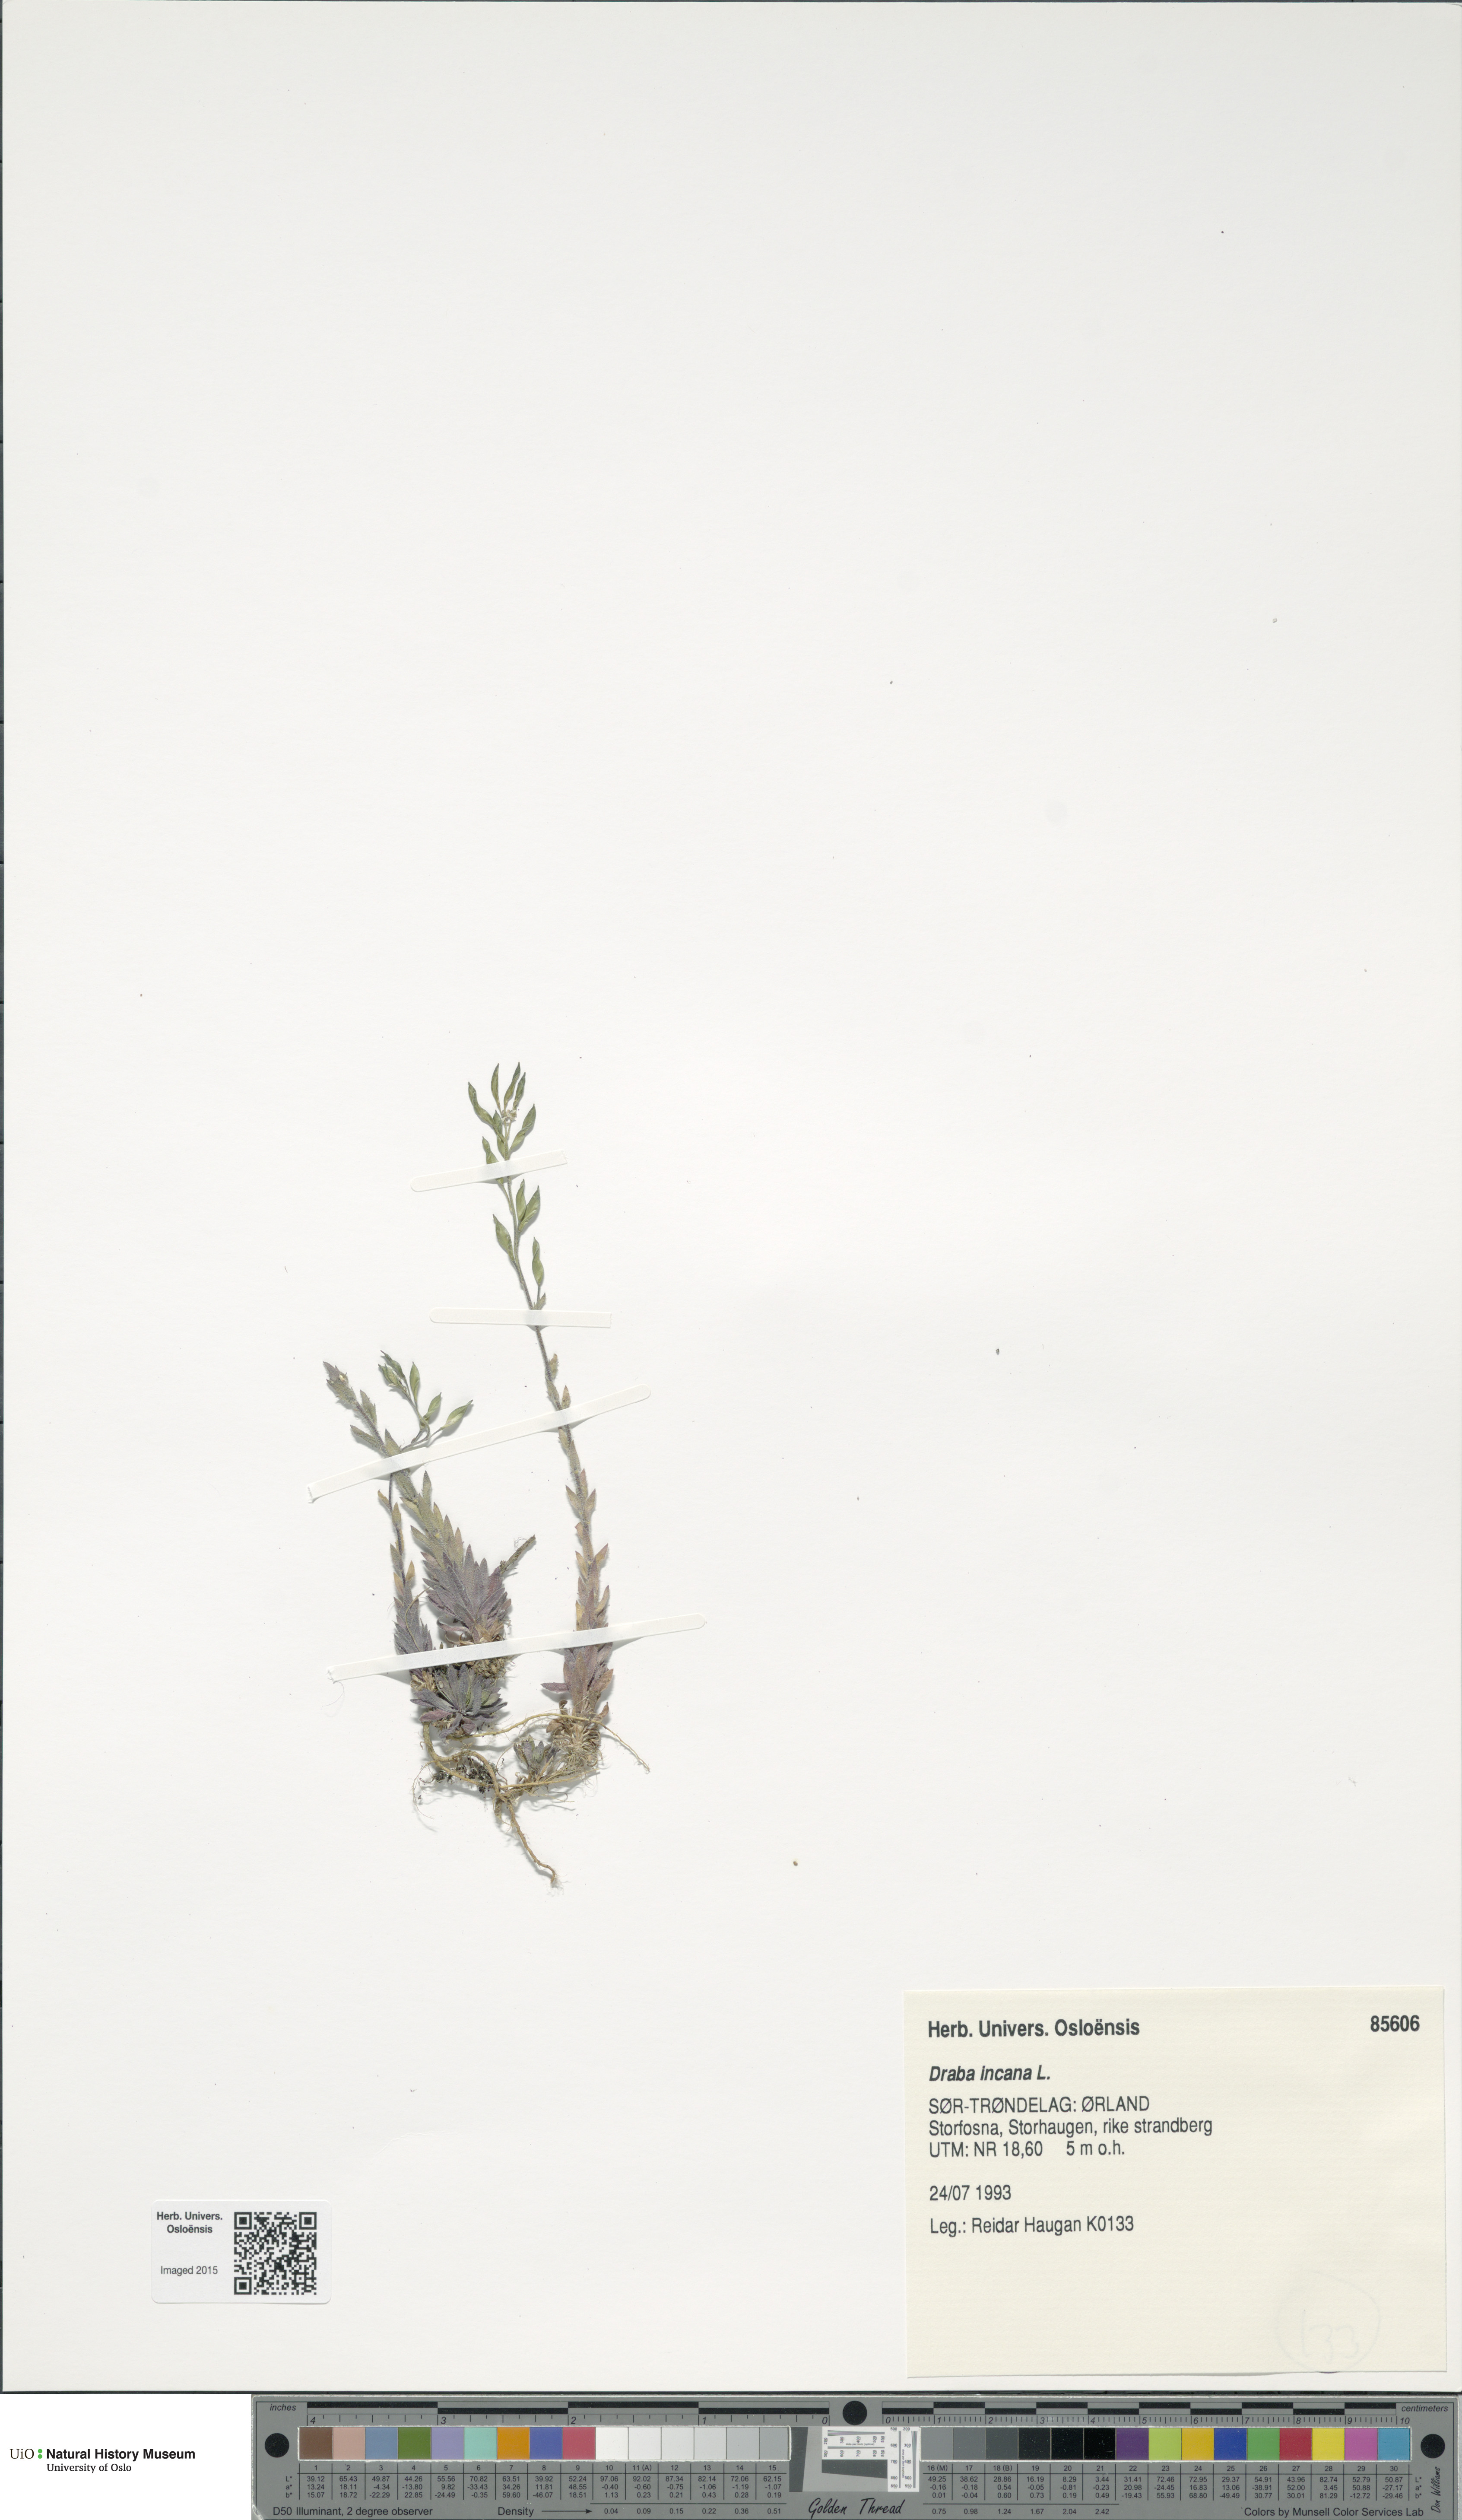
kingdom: Plantae
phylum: Tracheophyta
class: Magnoliopsida
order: Brassicales
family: Brassicaceae
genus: Draba
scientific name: Draba incana
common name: Hoary whitlow-grass
